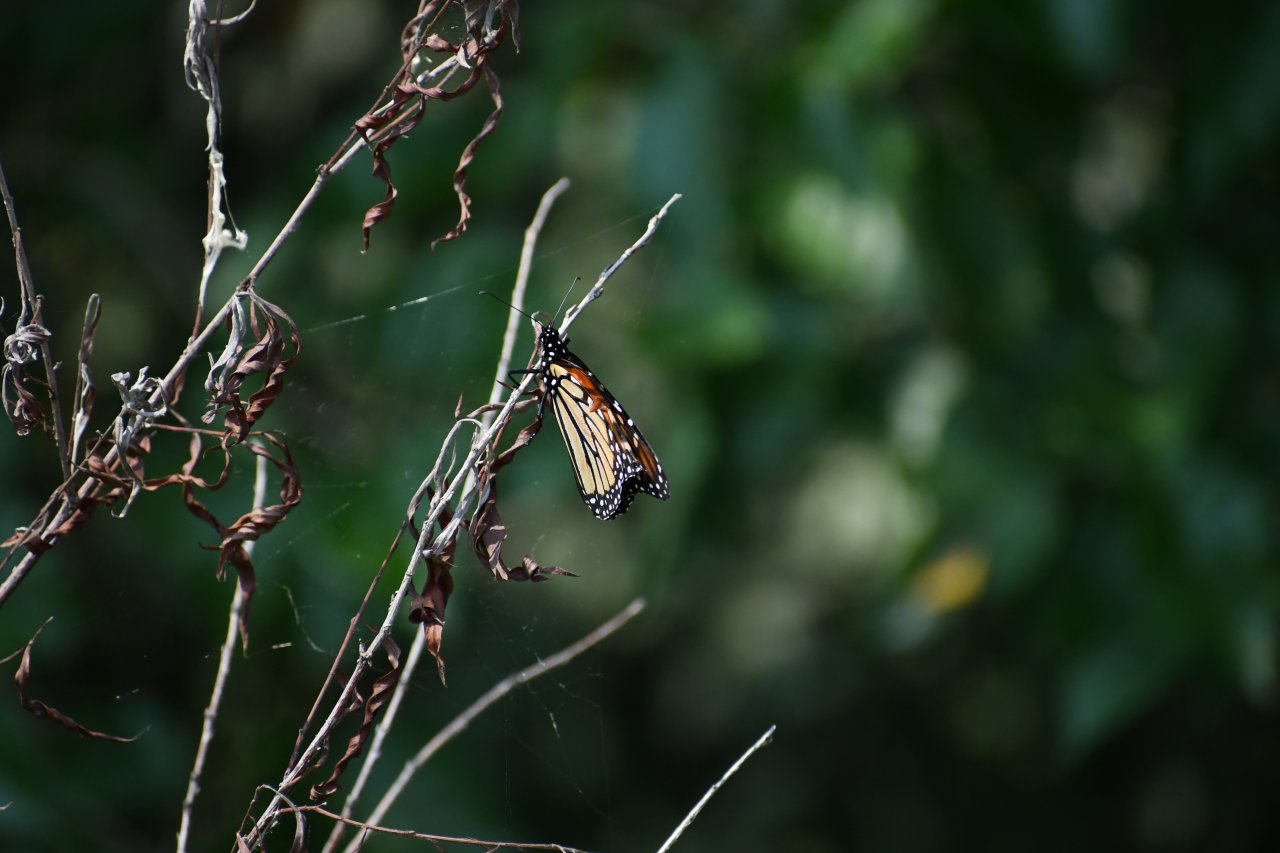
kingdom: Animalia
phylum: Arthropoda
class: Insecta
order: Lepidoptera
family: Nymphalidae
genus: Danaus
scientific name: Danaus plexippus
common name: Monarch
